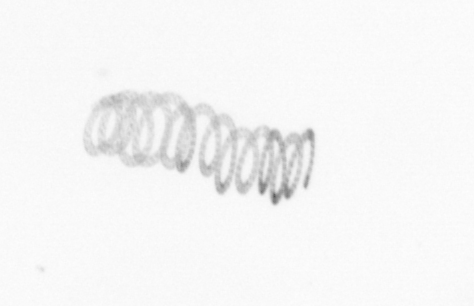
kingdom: Chromista
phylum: Ochrophyta
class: Bacillariophyceae
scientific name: Bacillariophyceae
